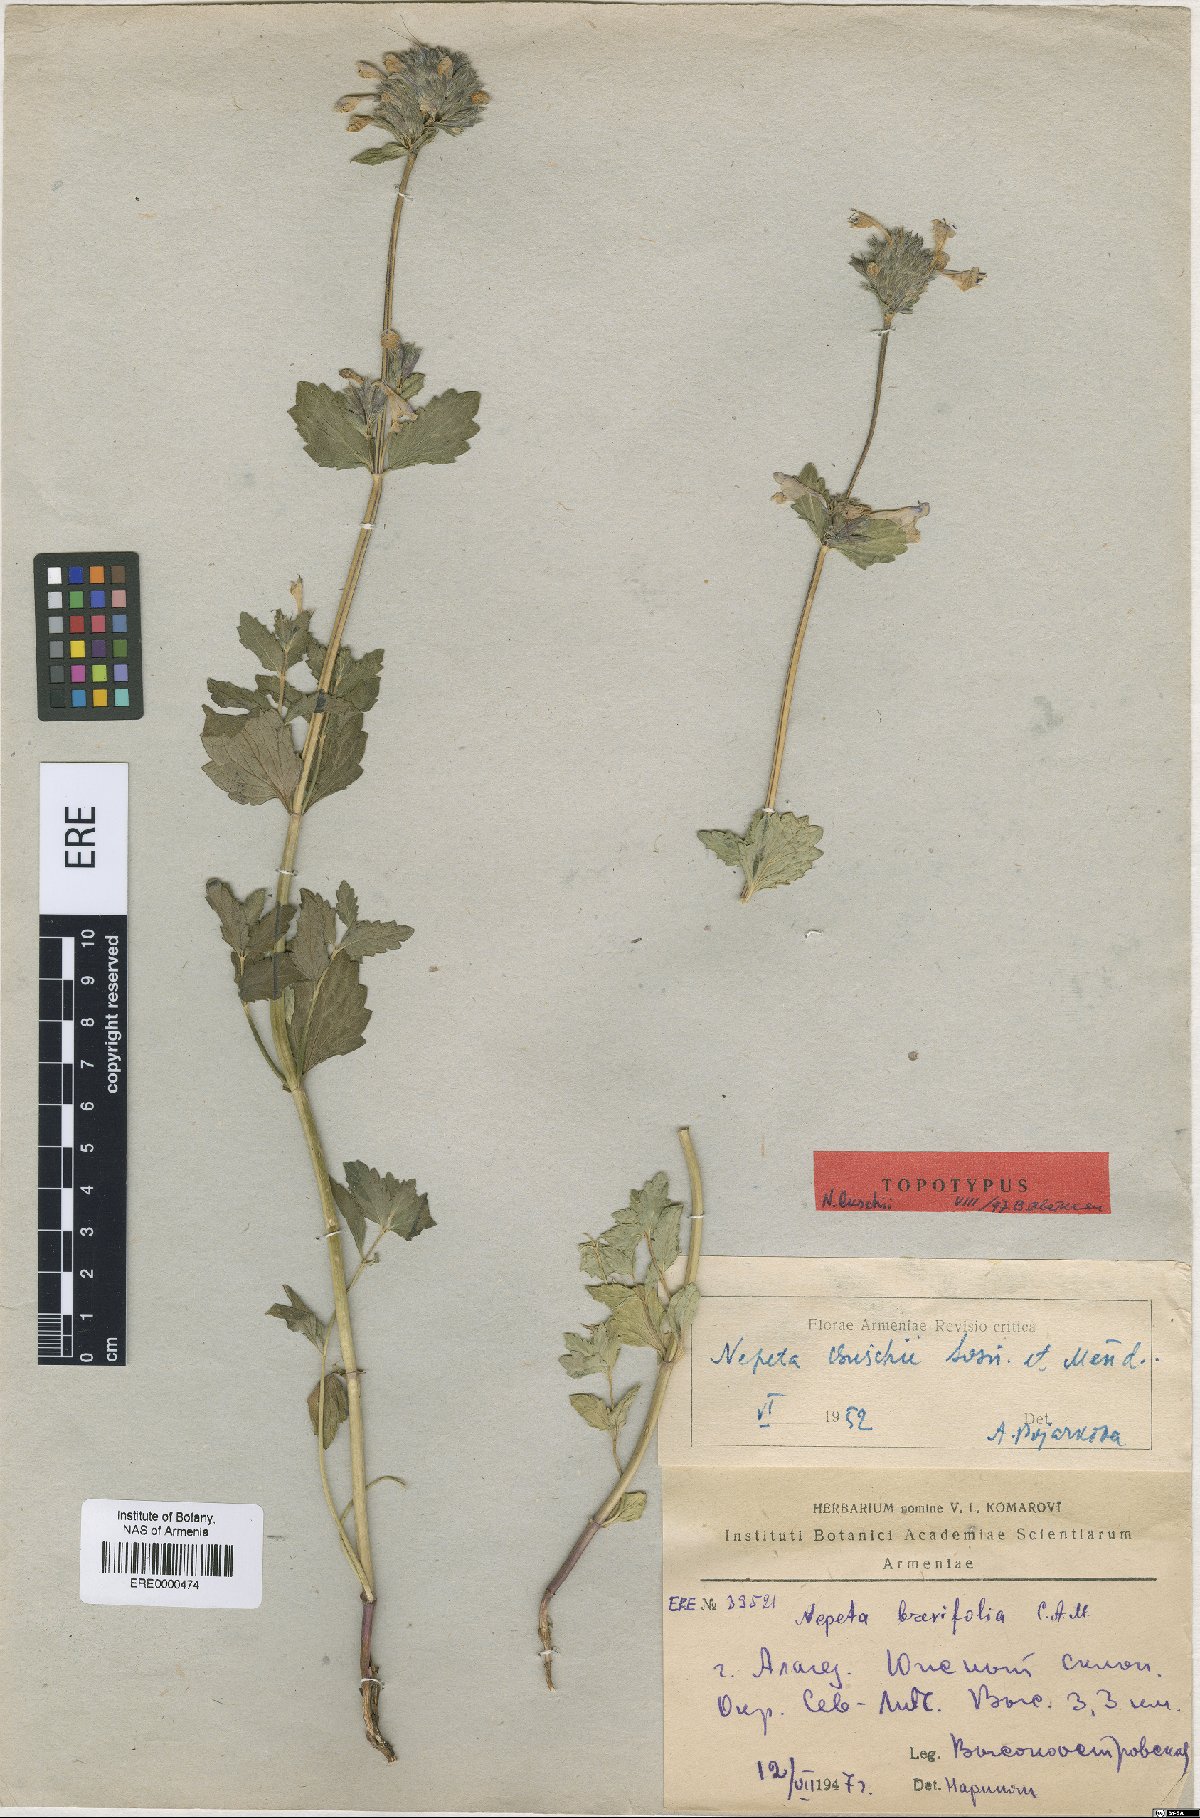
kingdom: Plantae
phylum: Tracheophyta
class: Magnoliopsida
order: Lamiales
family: Lamiaceae
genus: Nepeta
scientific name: Nepeta supina
